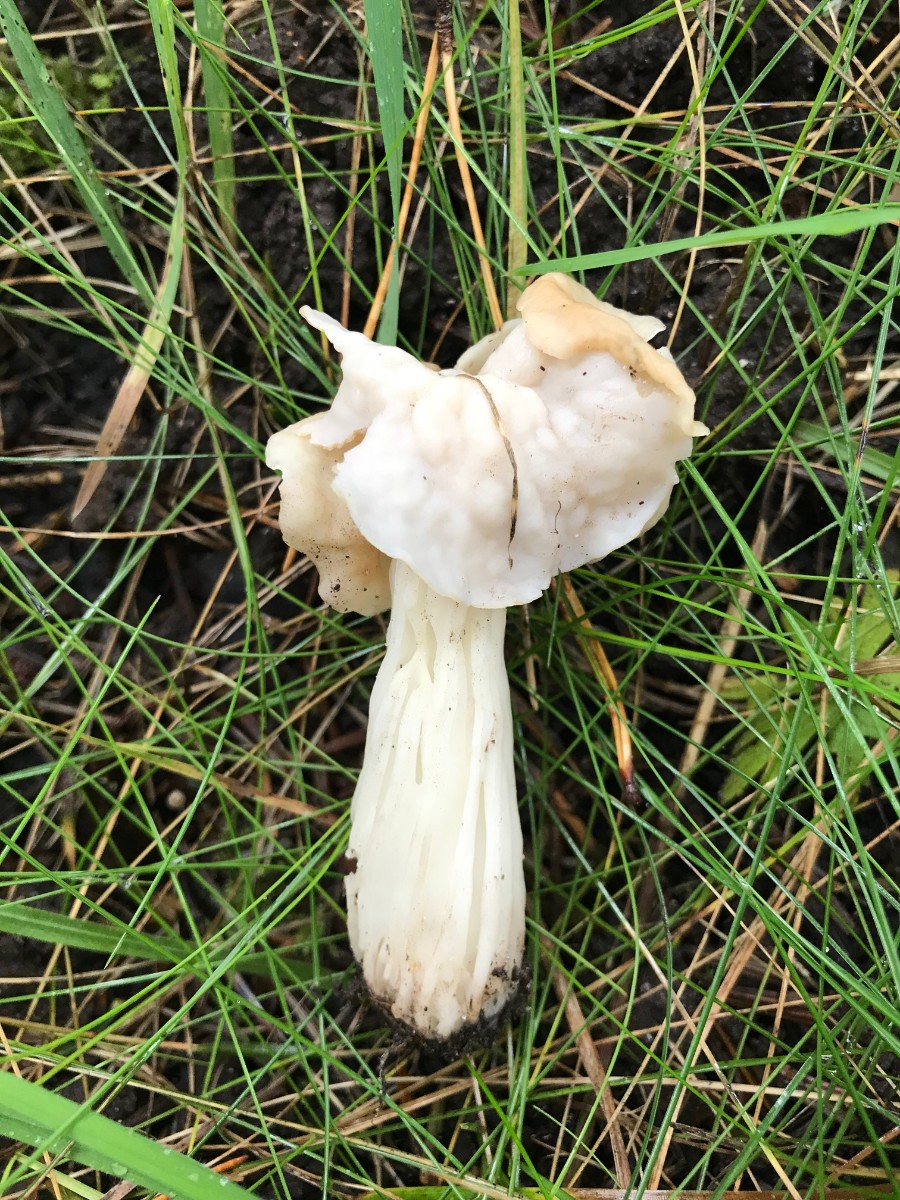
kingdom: Fungi
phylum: Ascomycota
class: Pezizomycetes
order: Pezizales
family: Helvellaceae
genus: Helvella
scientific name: Helvella crispa
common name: kruset foldhat
